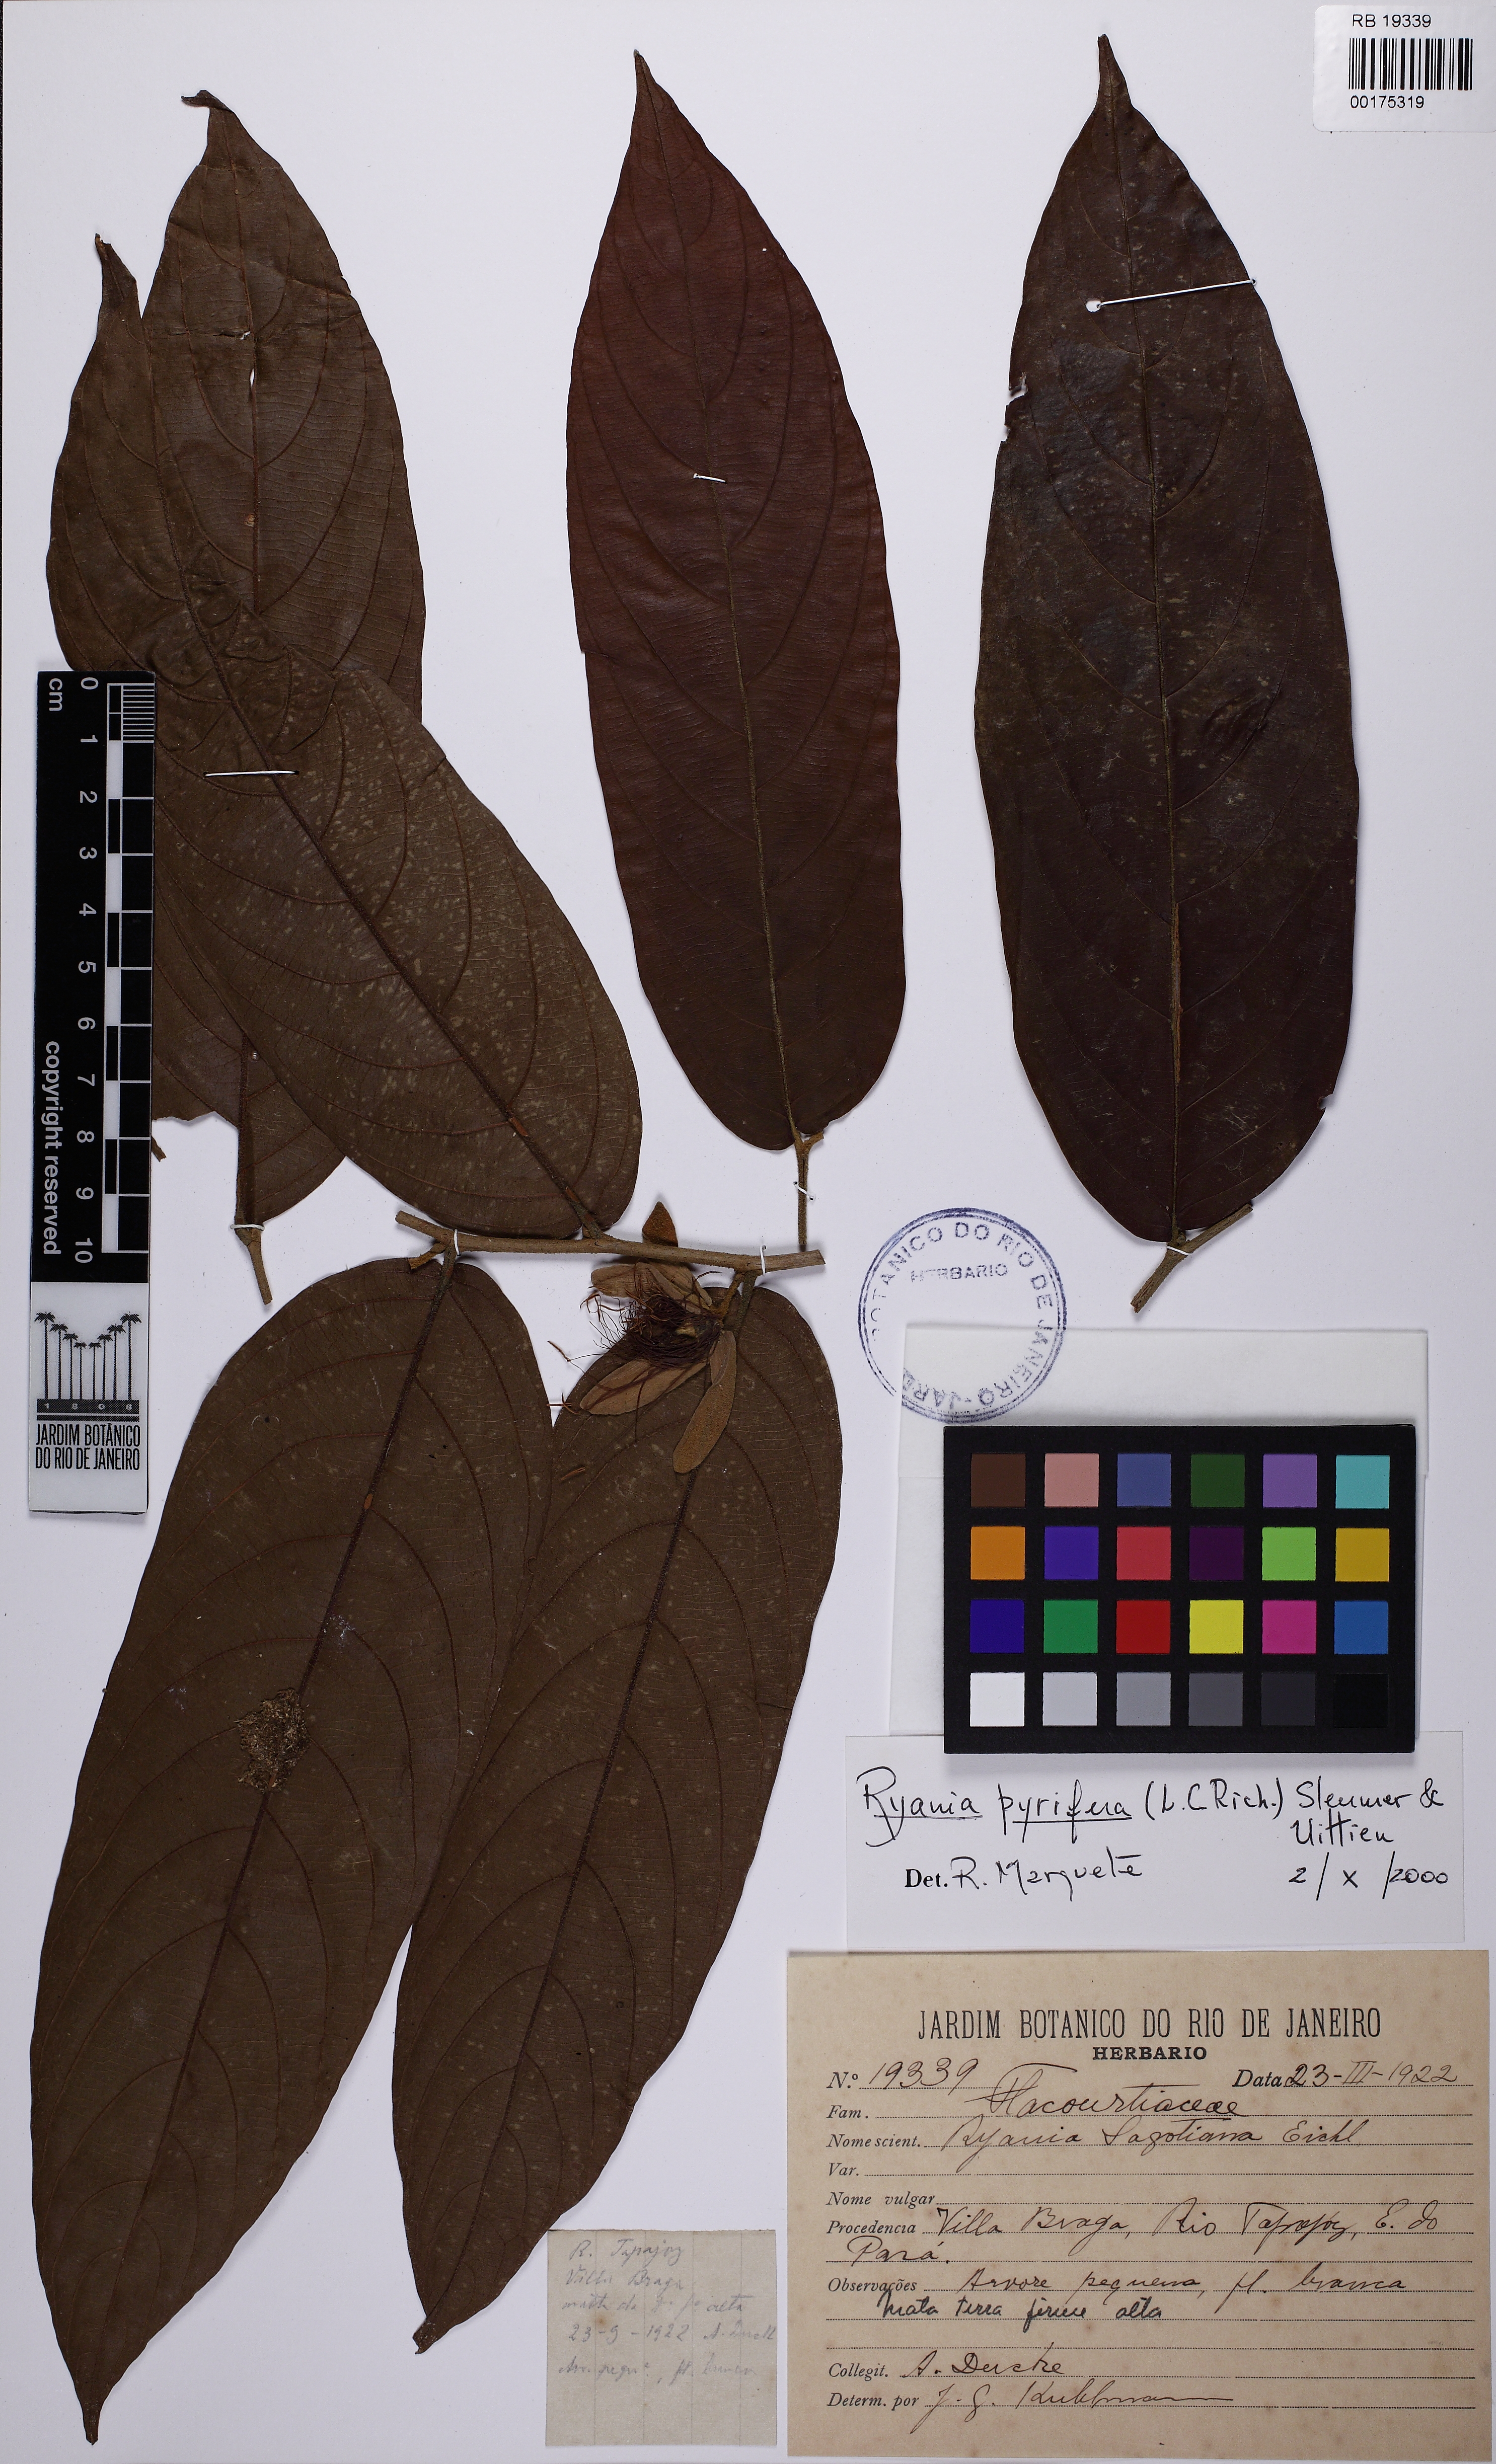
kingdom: Plantae
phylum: Tracheophyta
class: Magnoliopsida
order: Malpighiales
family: Salicaceae
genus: Ryania
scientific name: Ryania pyrifera
